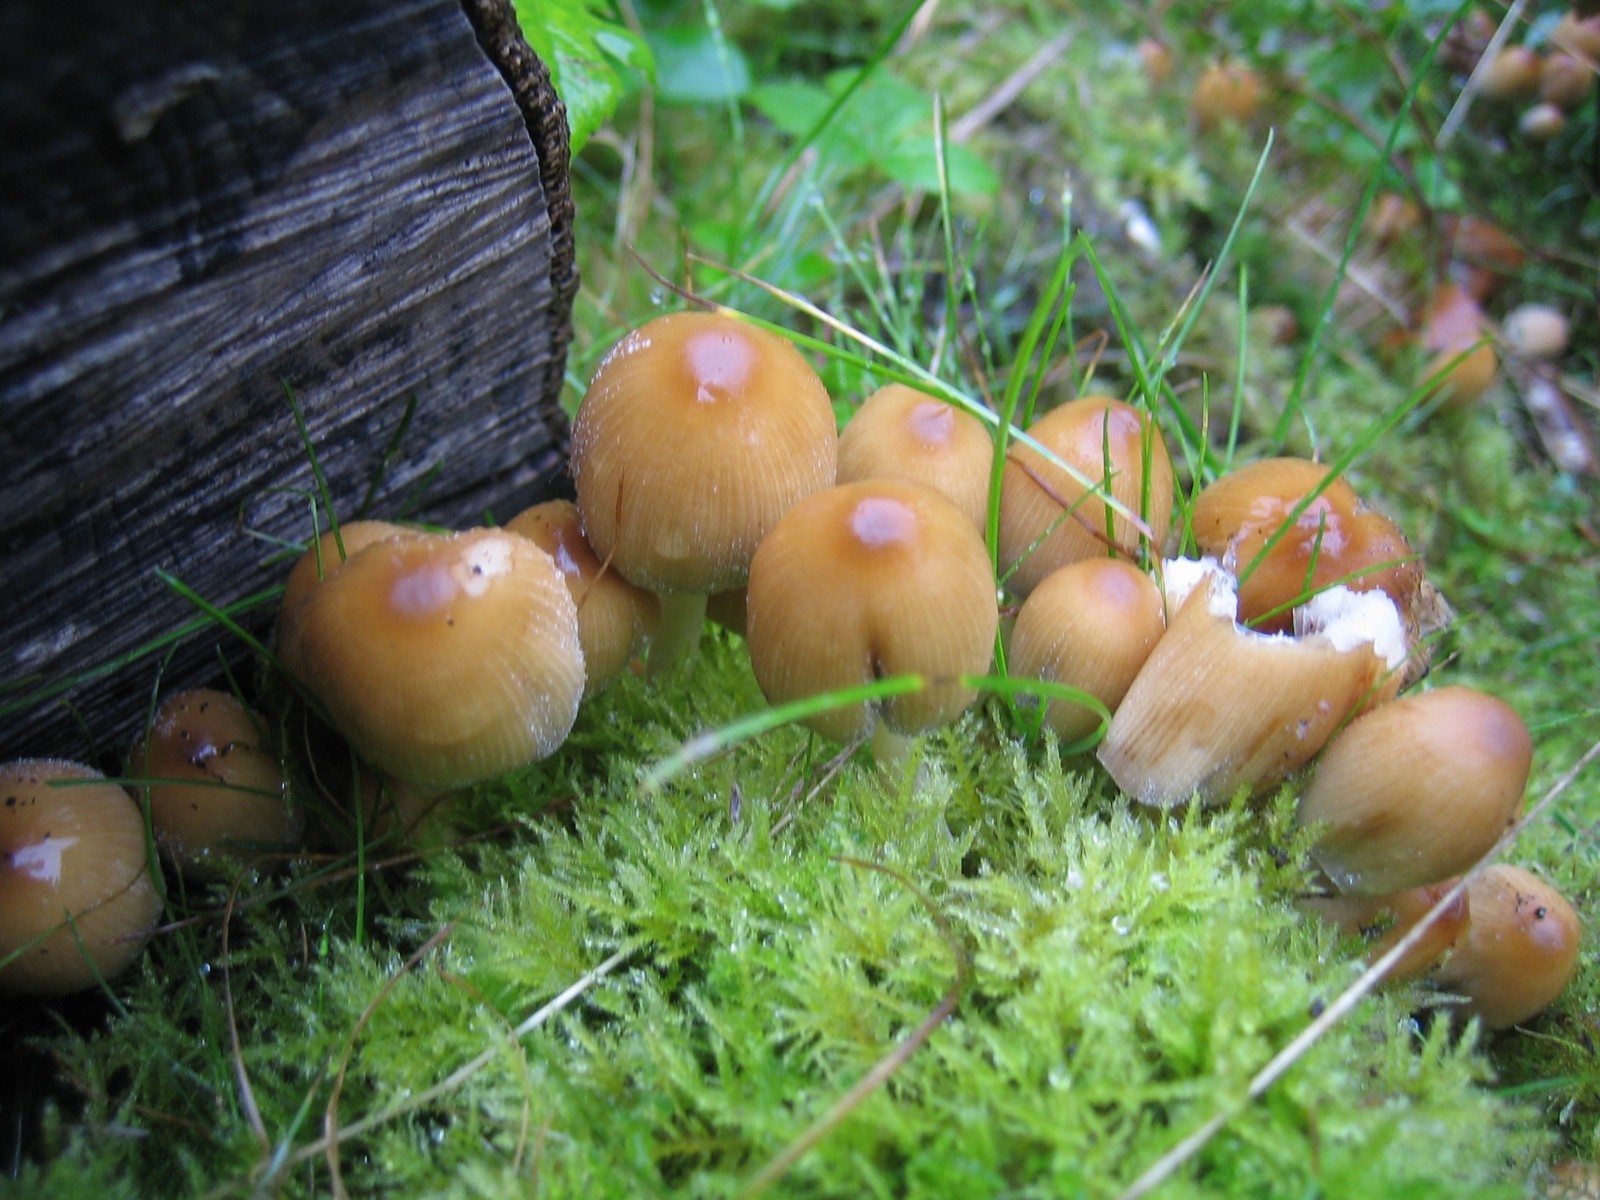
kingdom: Fungi
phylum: Basidiomycota
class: Agaricomycetes
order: Agaricales
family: Psathyrellaceae
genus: Coprinellus
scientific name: Coprinellus micaceus
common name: glimmer-blækhat
